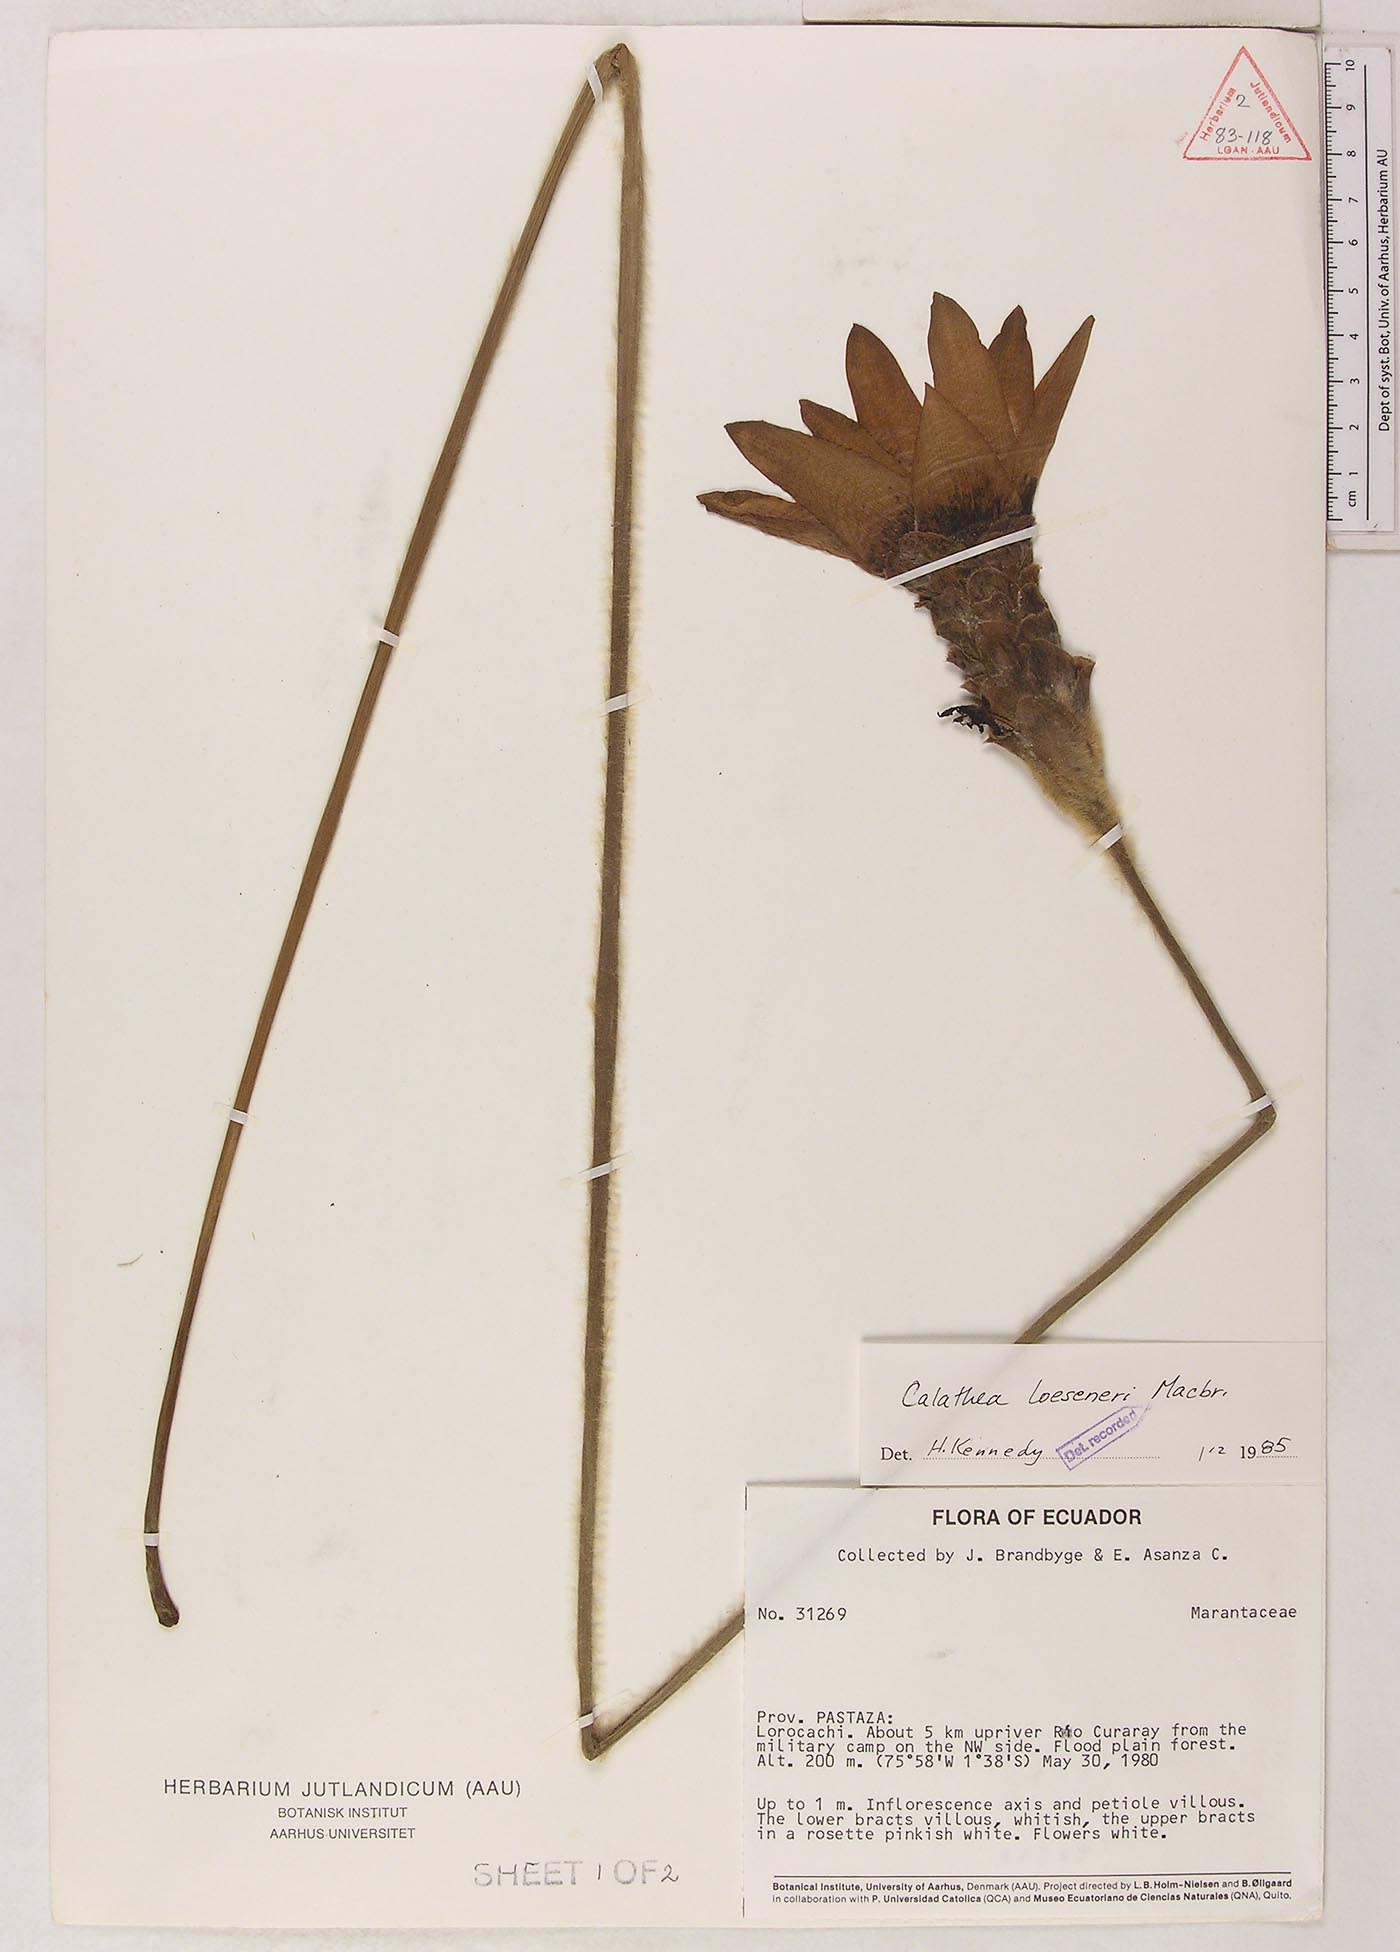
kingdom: Plantae
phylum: Tracheophyta
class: Liliopsida
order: Zingiberales
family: Marantaceae
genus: Goeppertia
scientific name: Goeppertia loeseneri
